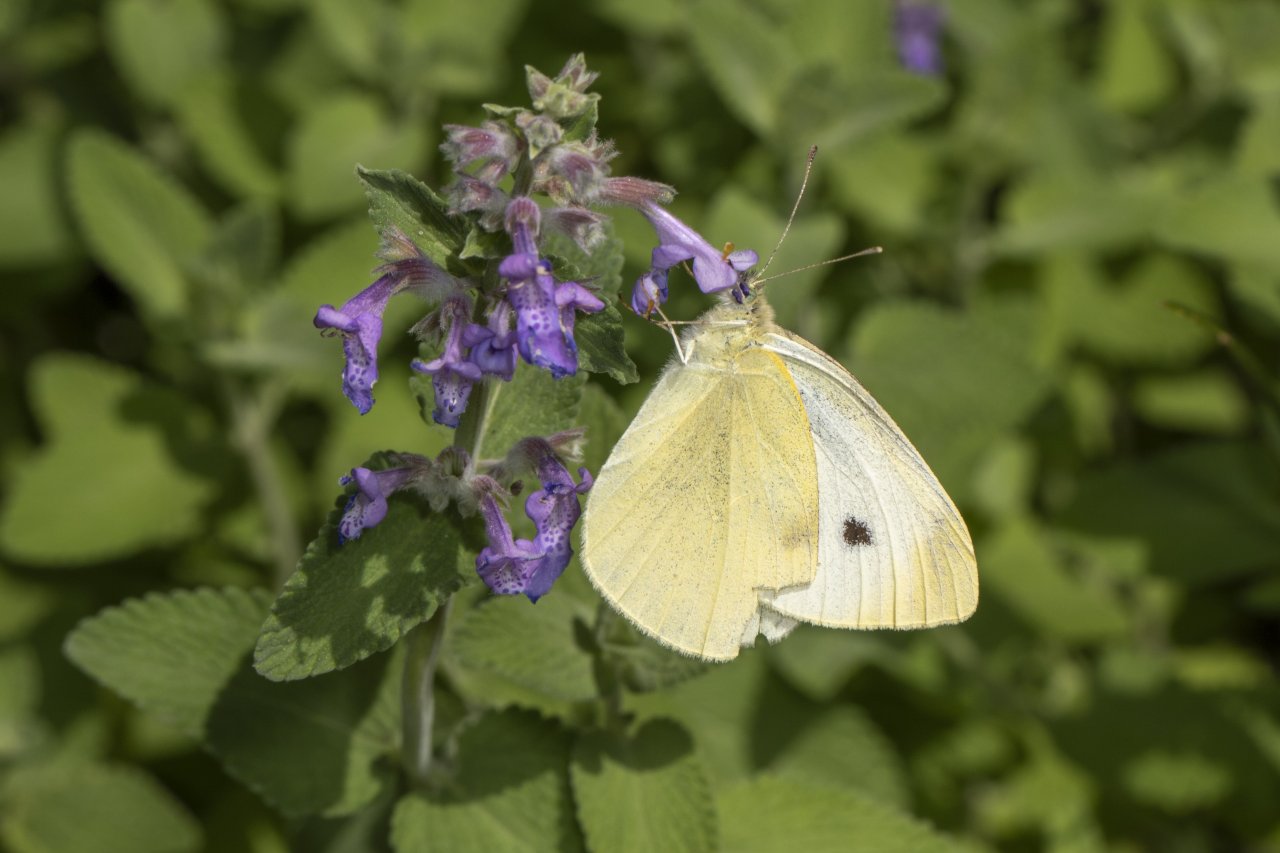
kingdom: Animalia
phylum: Arthropoda
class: Insecta
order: Lepidoptera
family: Pieridae
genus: Pieris
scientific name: Pieris rapae
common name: Cabbage White
